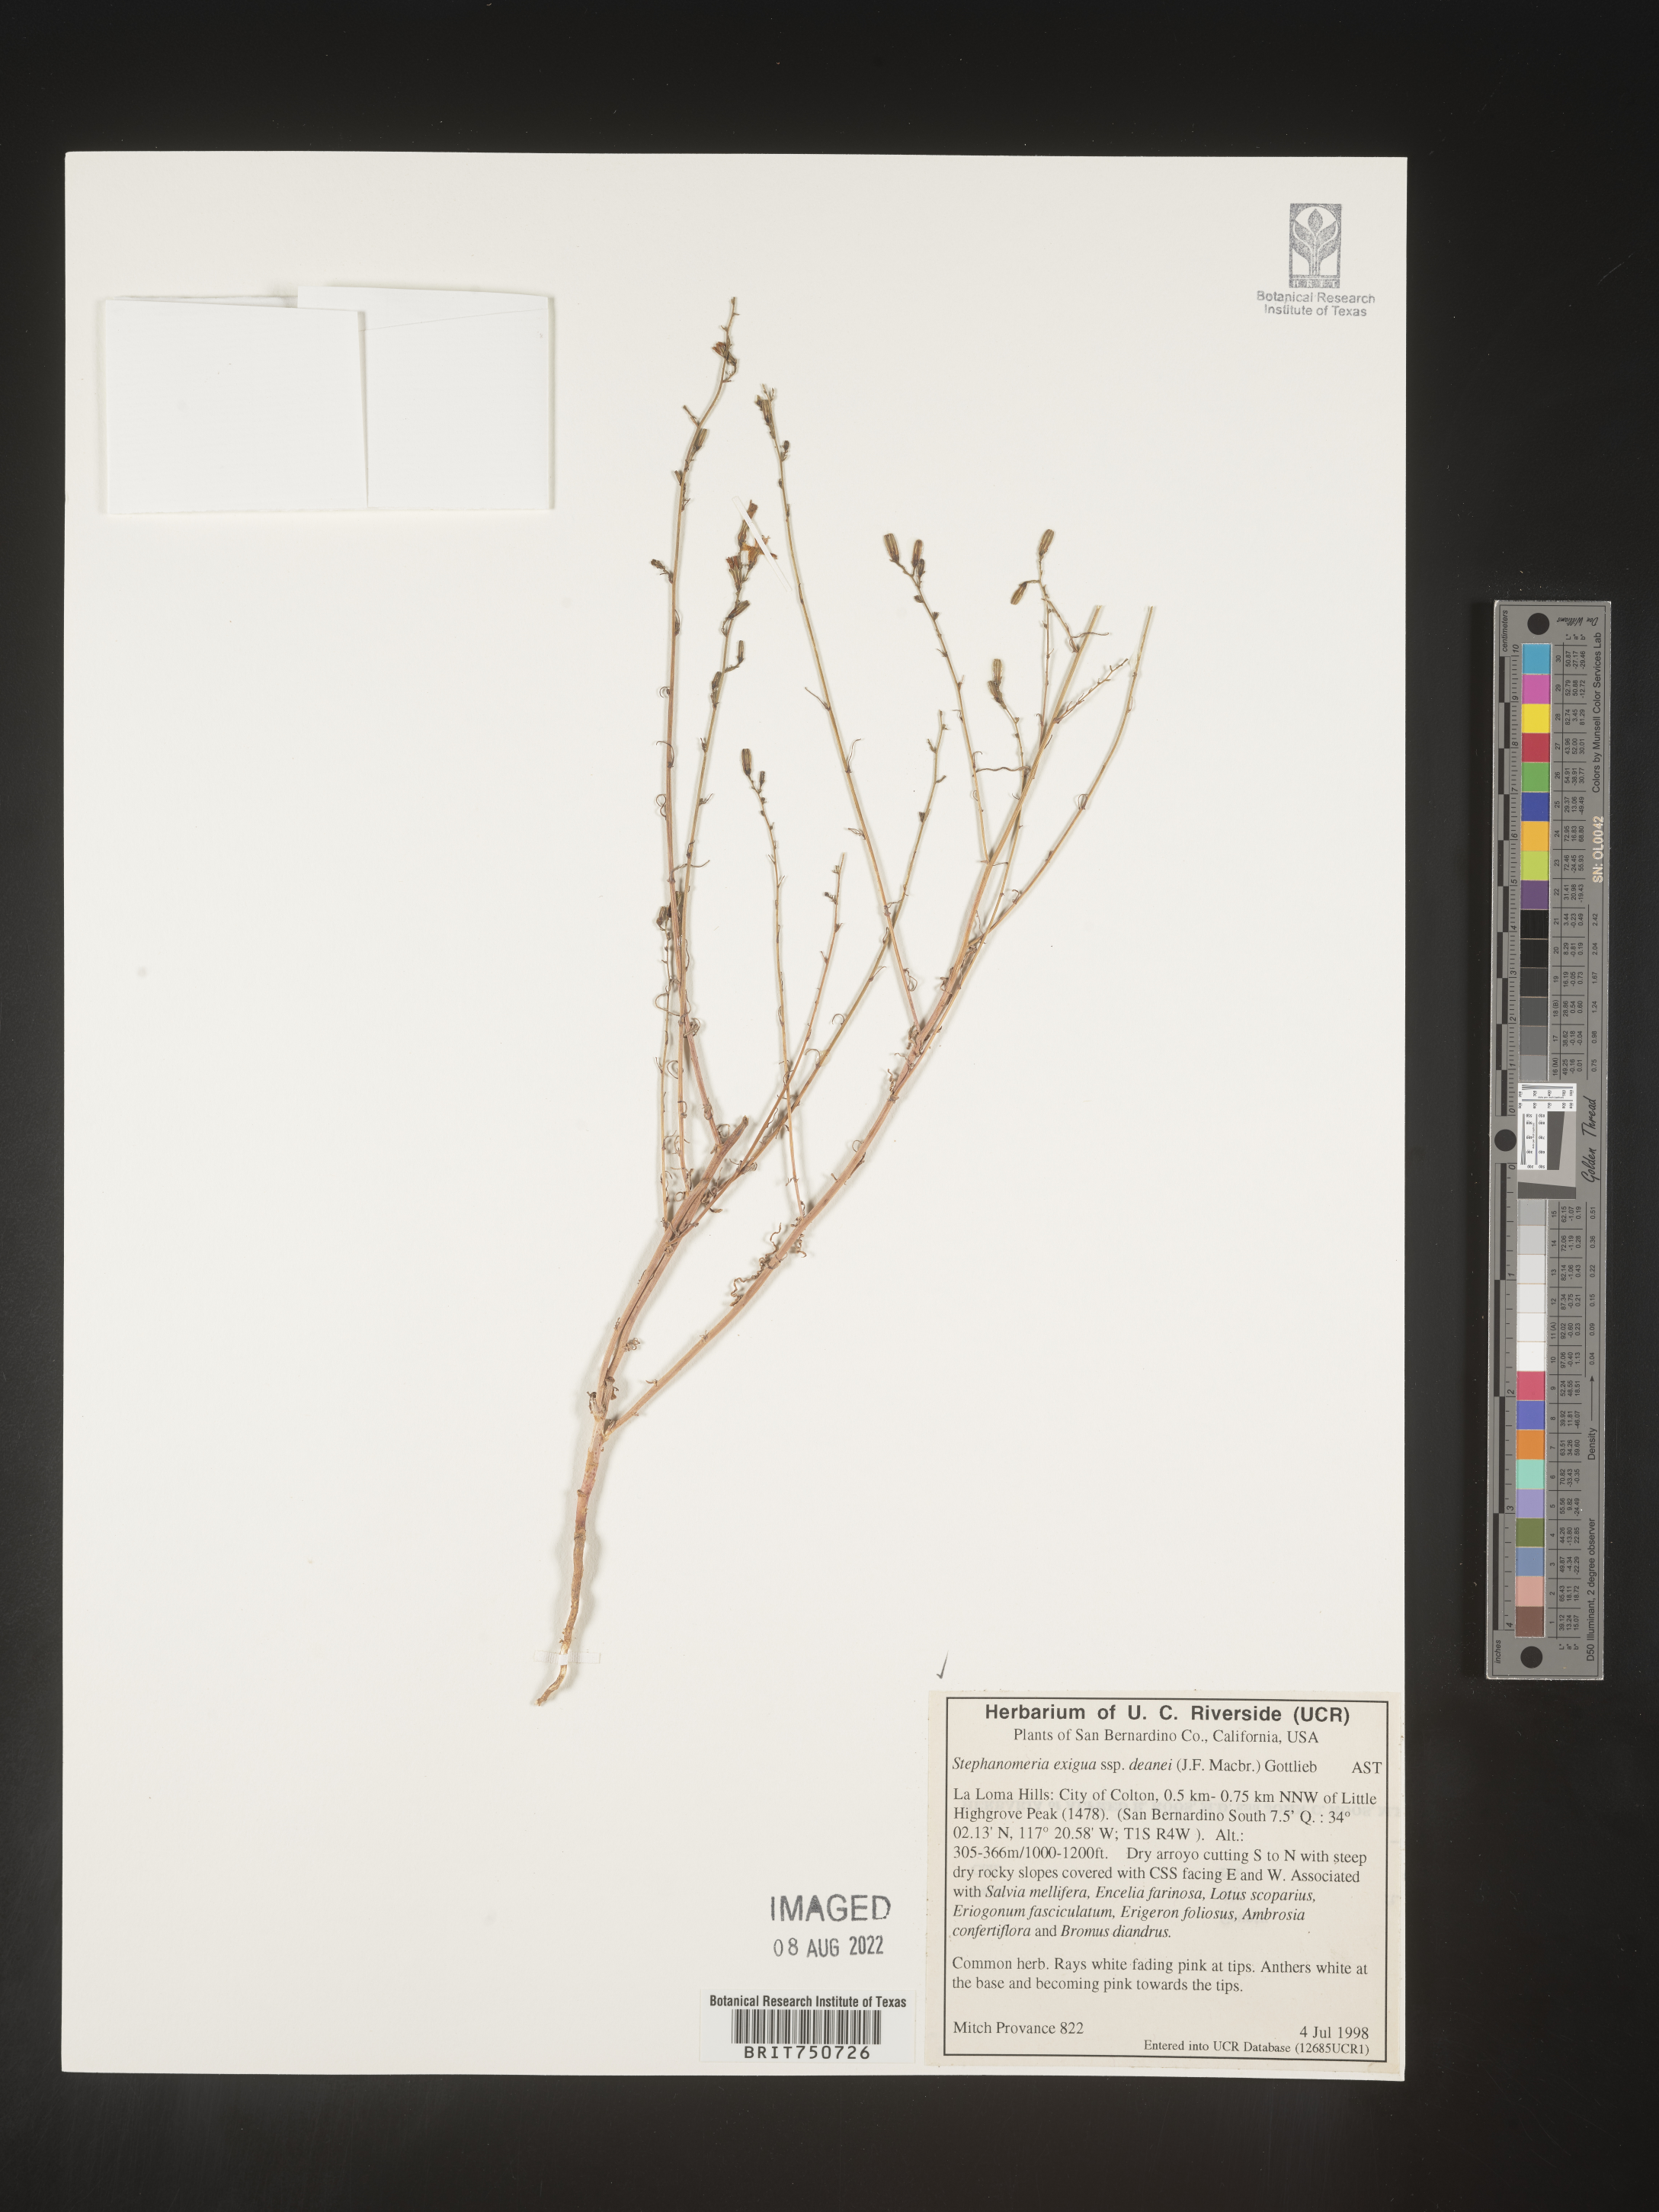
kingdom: Plantae
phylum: Tracheophyta
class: Magnoliopsida
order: Asterales
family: Asteraceae
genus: Stephanomeria
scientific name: Stephanomeria exigua
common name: Small wirelettuce
